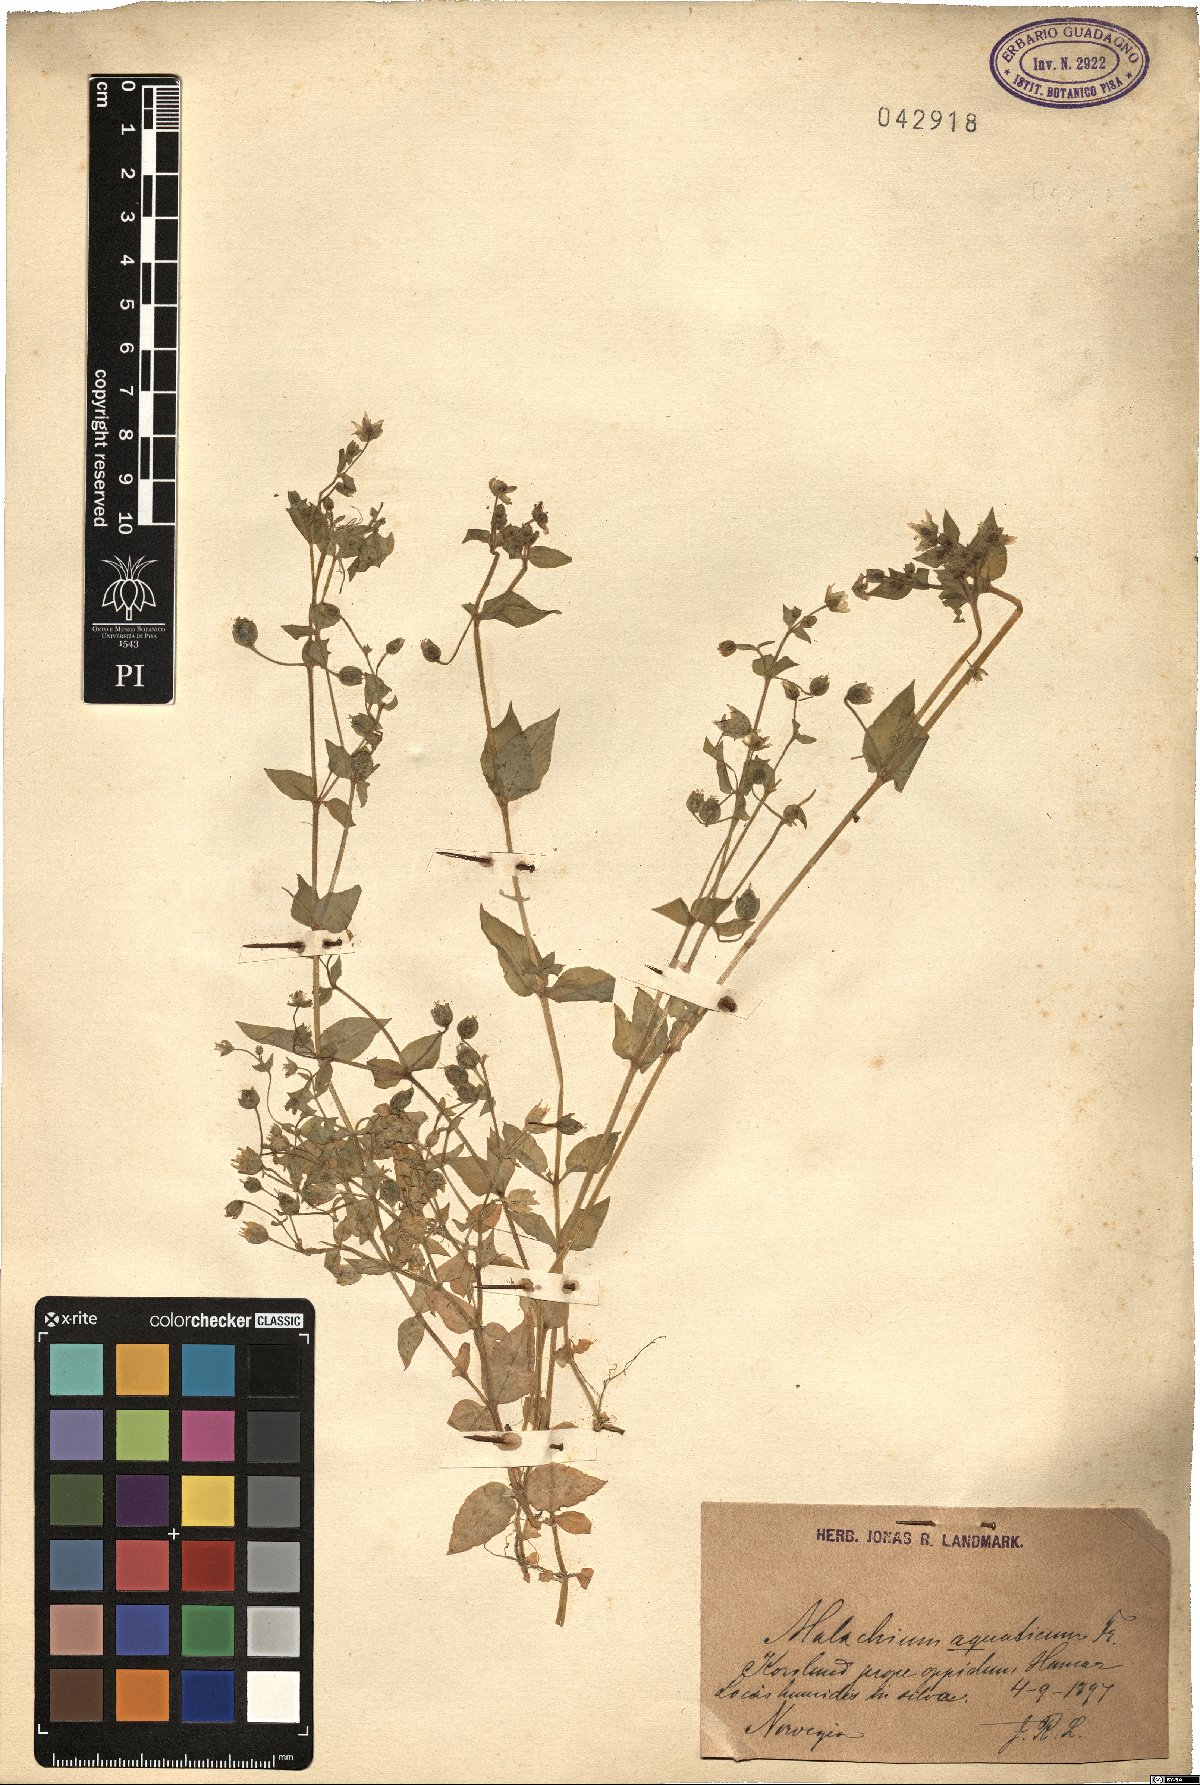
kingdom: Plantae
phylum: Tracheophyta
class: Magnoliopsida
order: Caryophyllales
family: Caryophyllaceae
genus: Stellaria
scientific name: Stellaria aquatica
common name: Water chickweed
